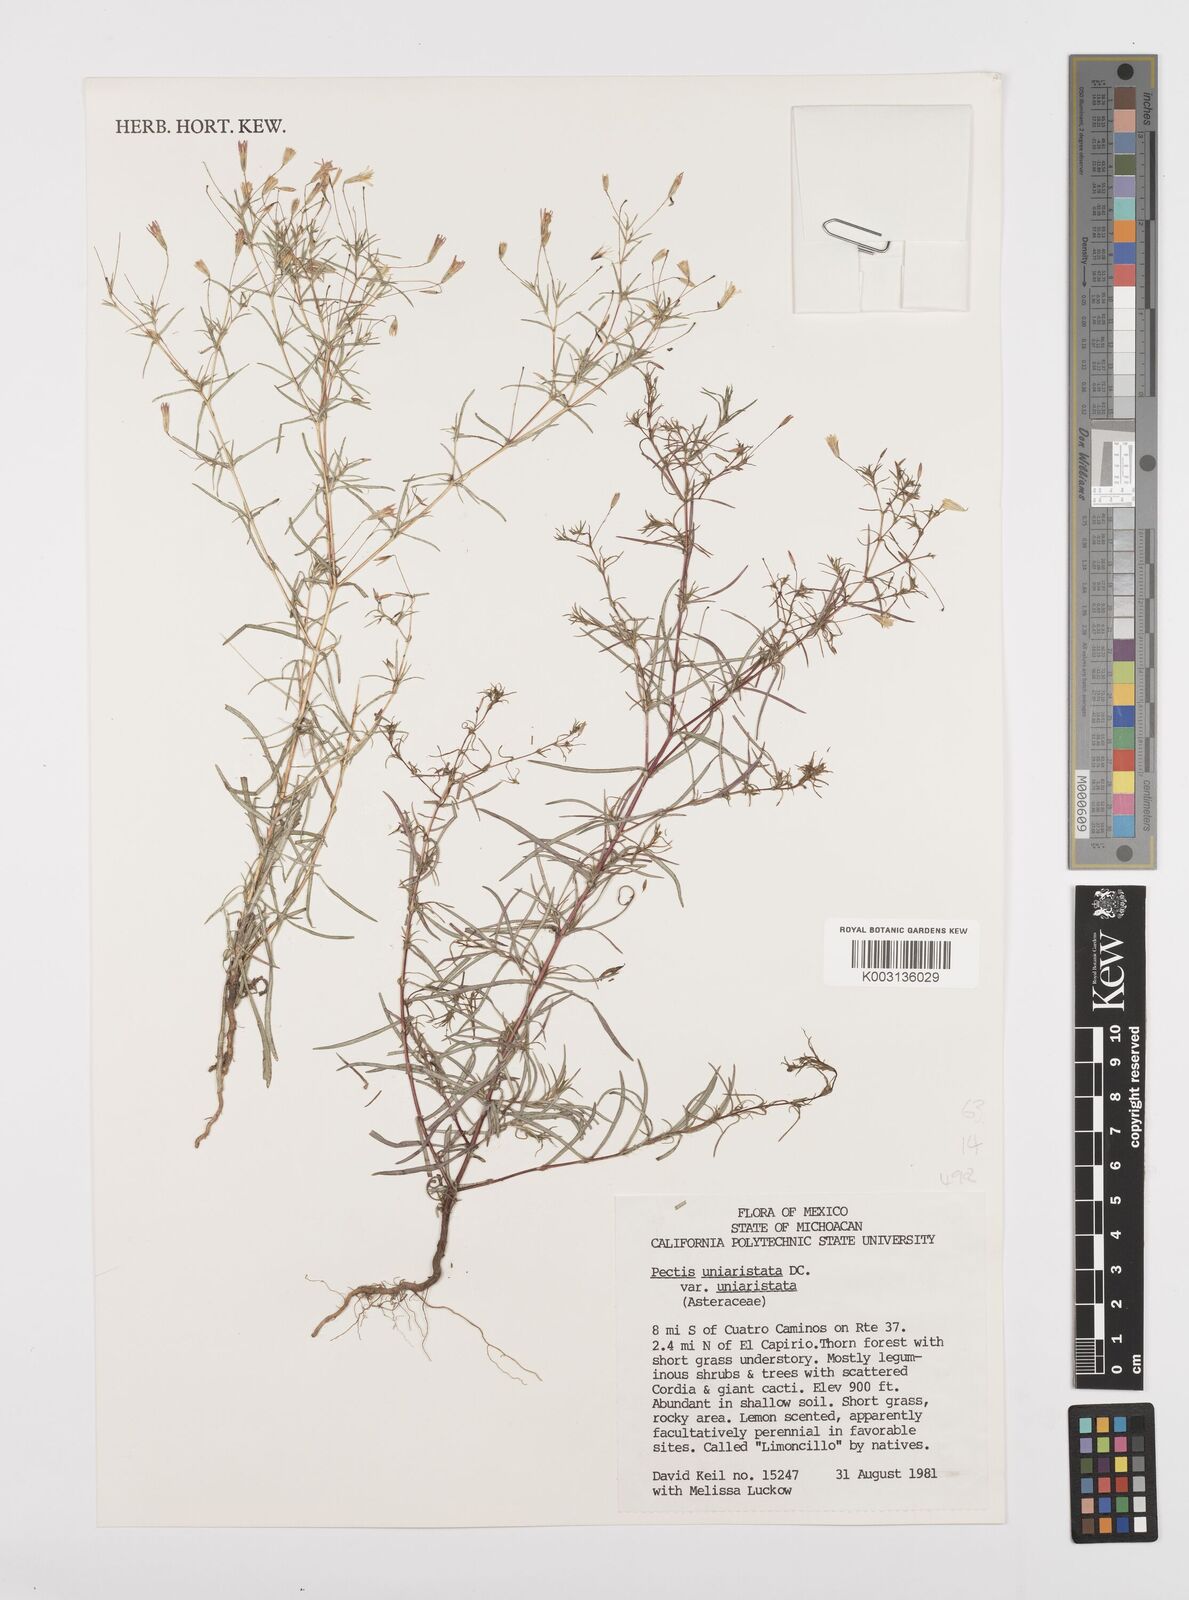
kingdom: Plantae
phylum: Tracheophyta
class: Magnoliopsida
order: Asterales
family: Asteraceae
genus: Pectis
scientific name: Pectis uniaristata
